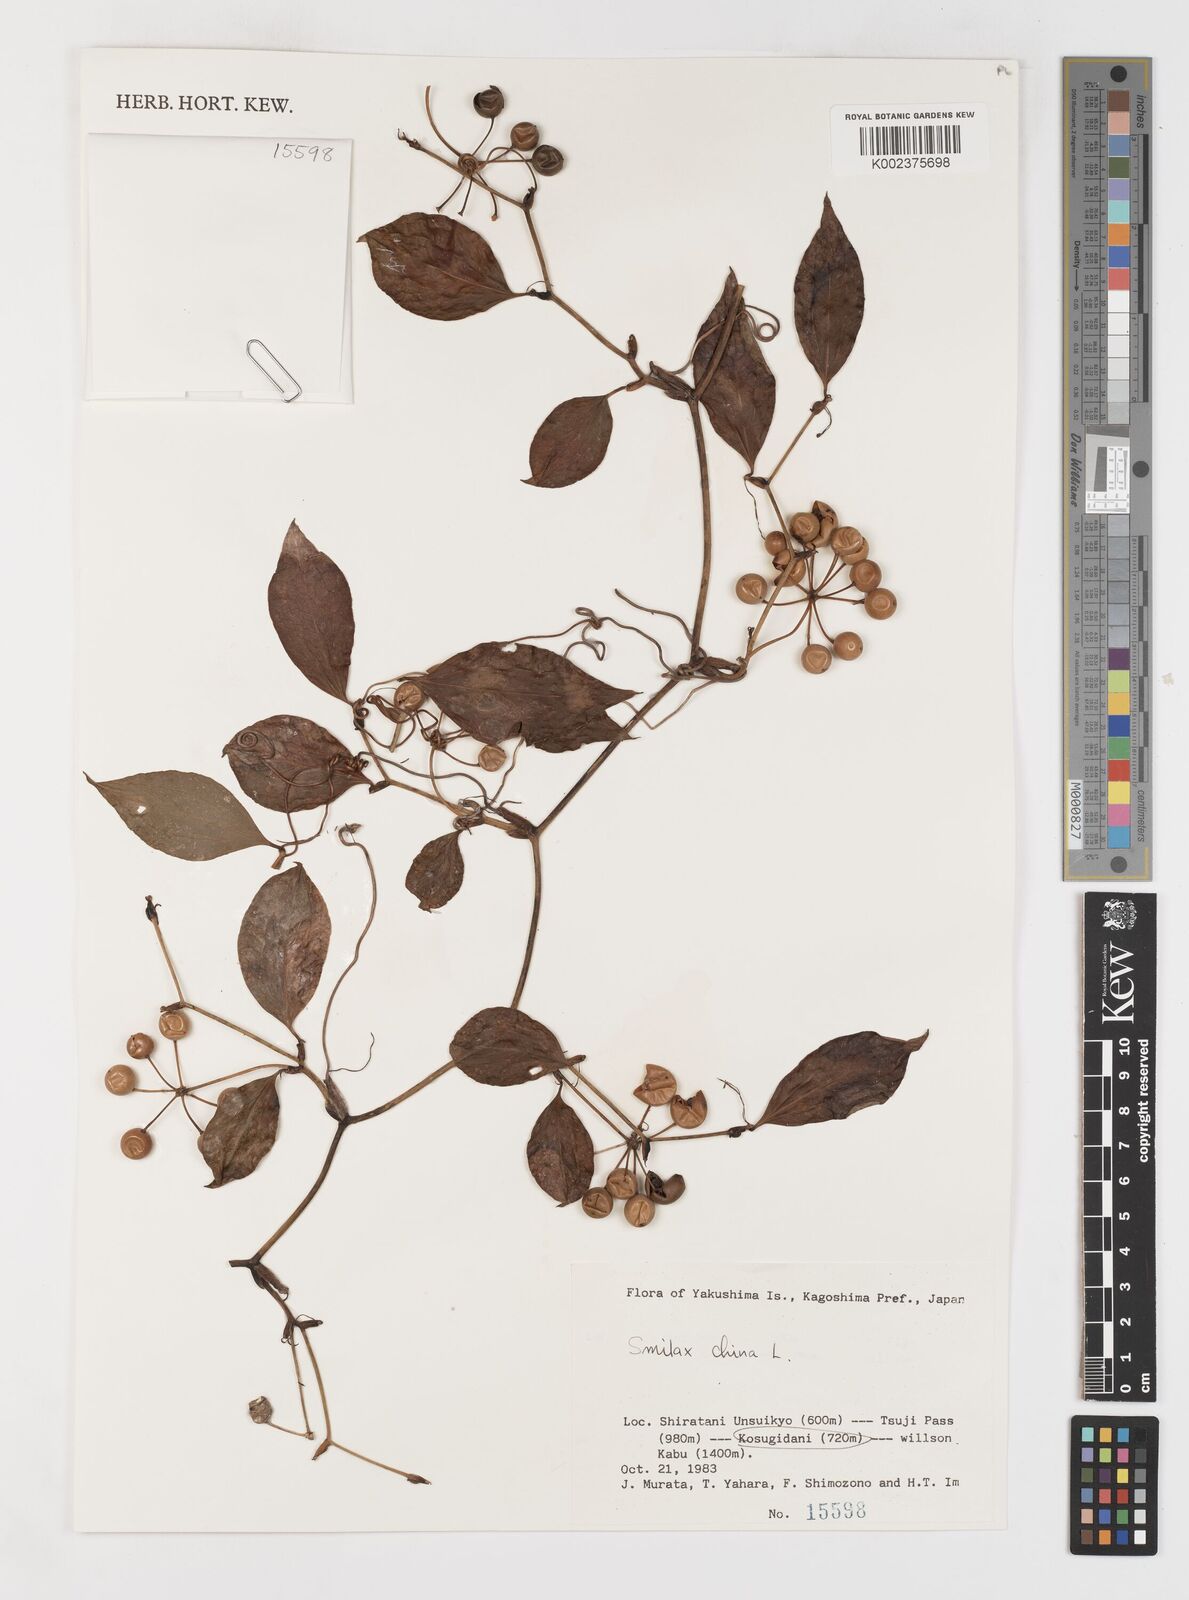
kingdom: Plantae
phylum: Tracheophyta
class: Liliopsida
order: Liliales
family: Smilacaceae
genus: Smilax
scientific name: Smilax china
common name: Chinaroot
